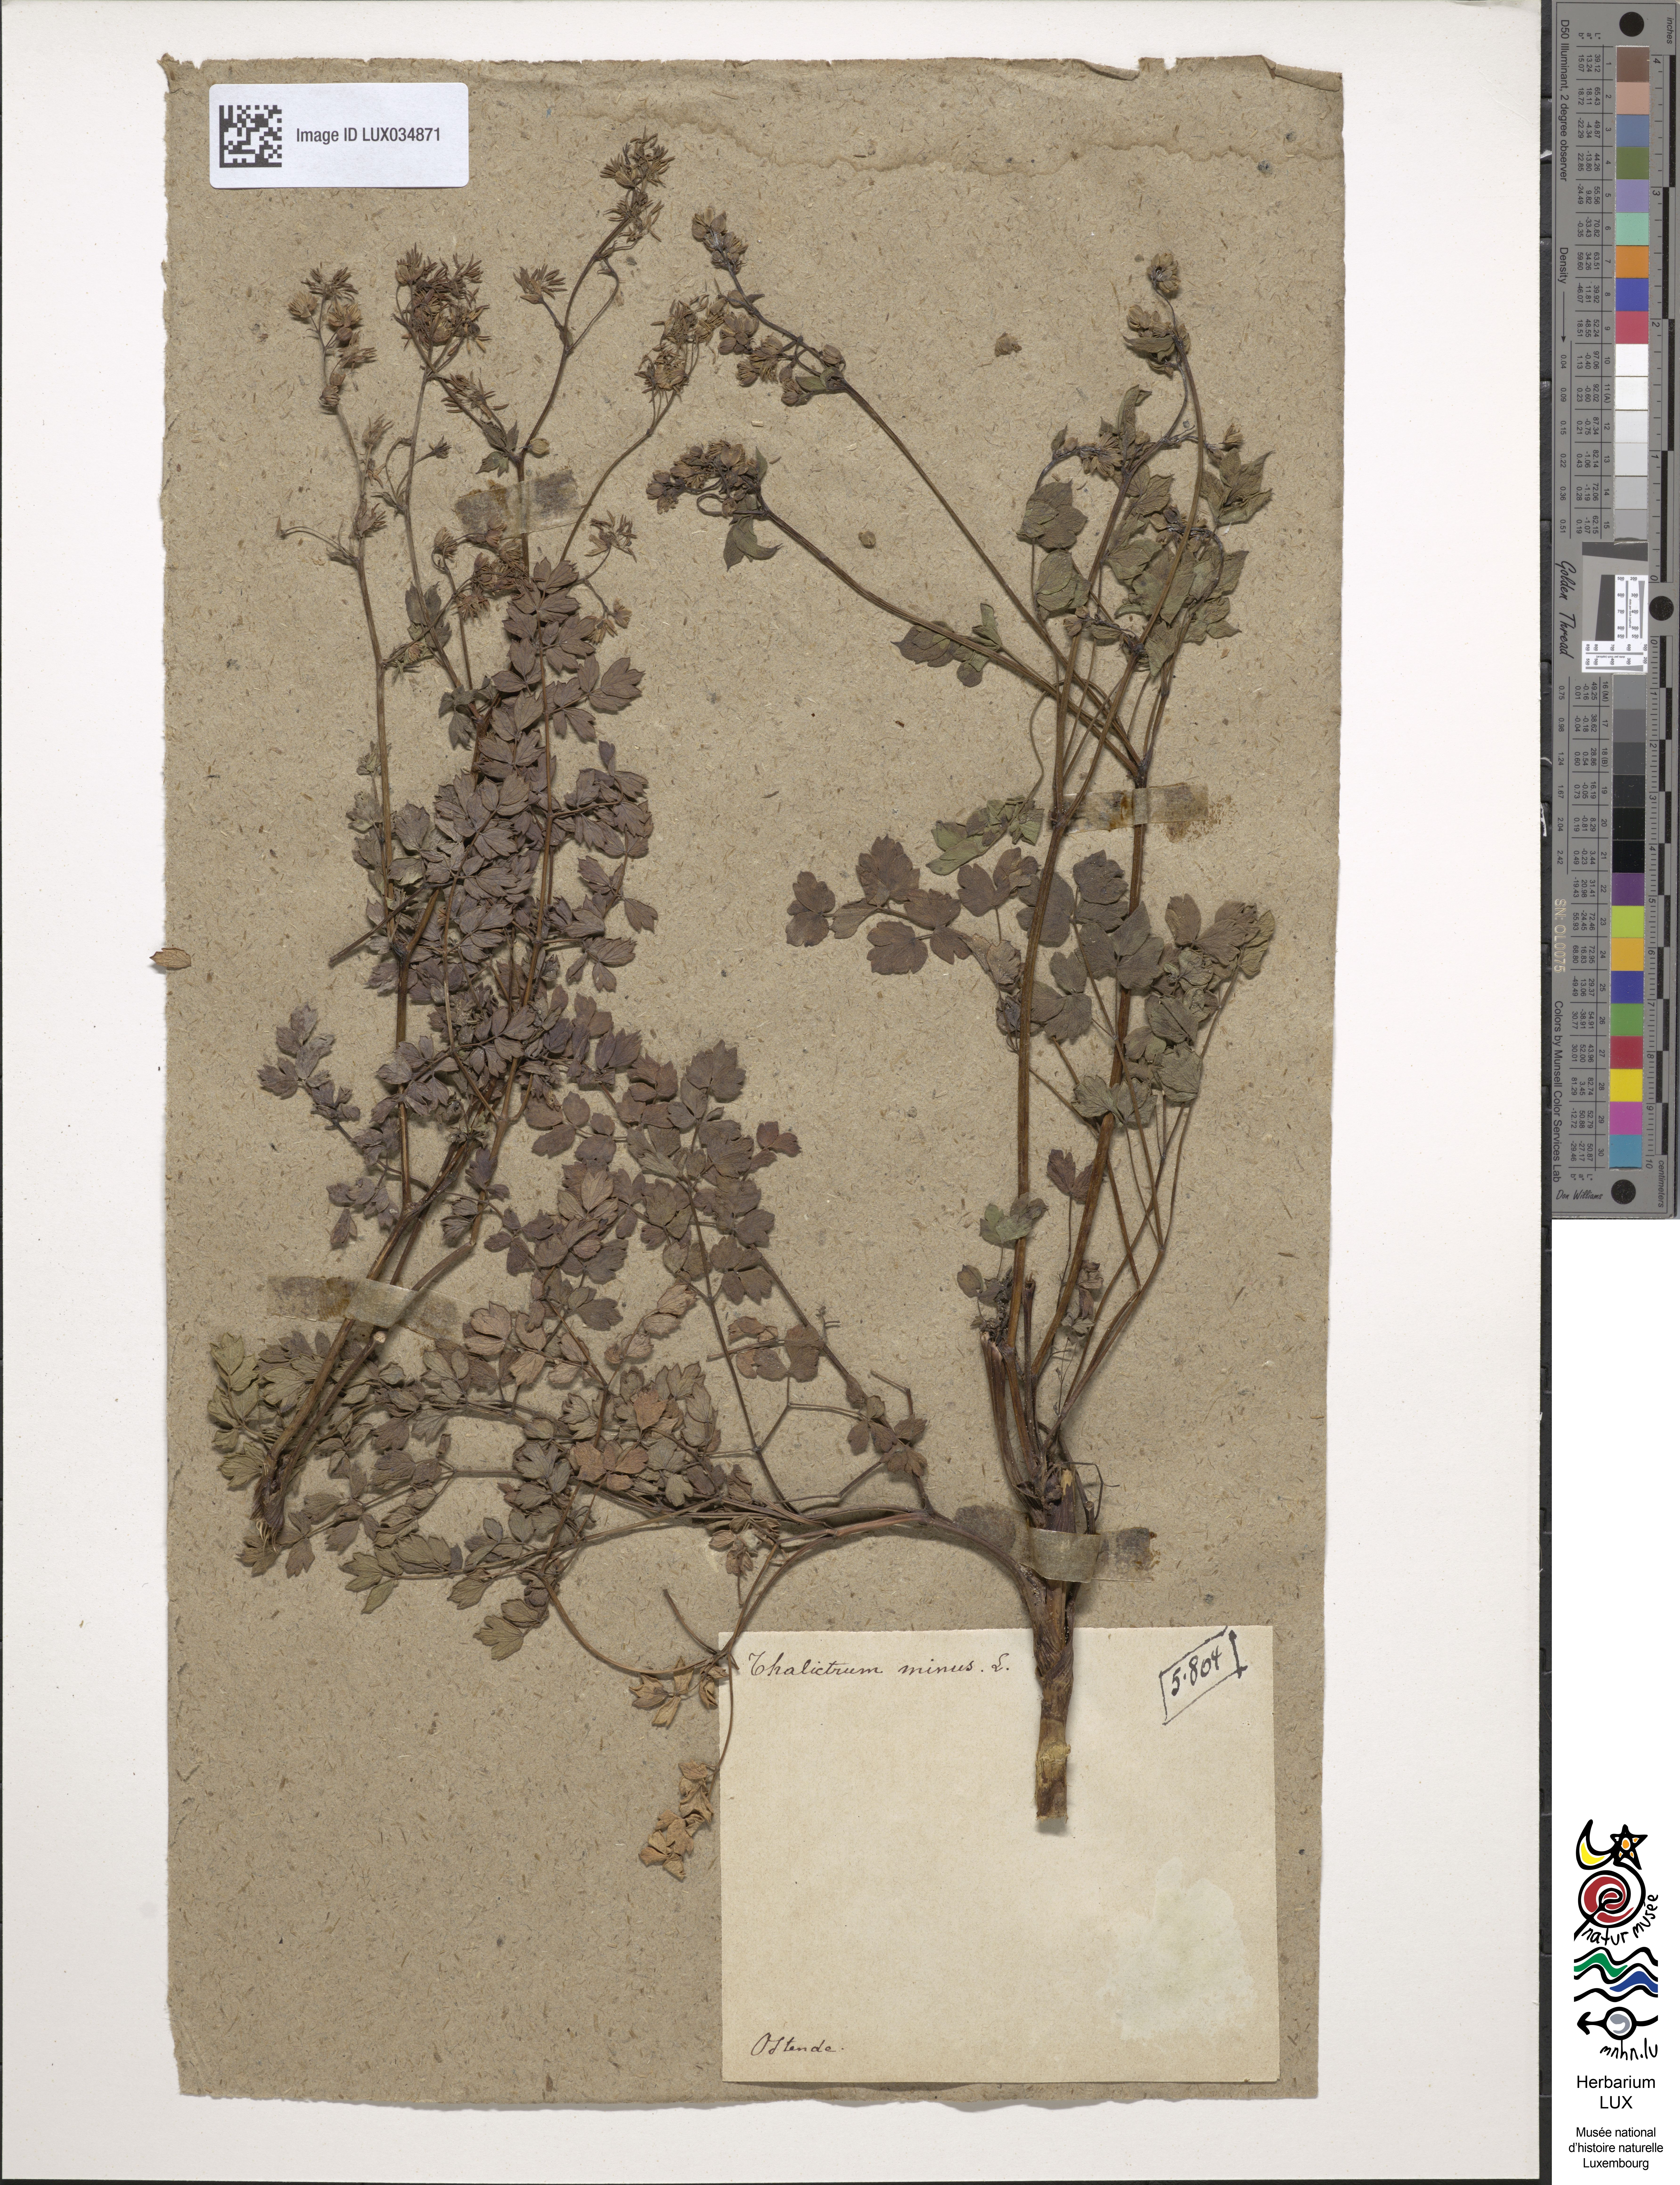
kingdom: Plantae
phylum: Tracheophyta
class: Magnoliopsida
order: Ranunculales
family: Ranunculaceae
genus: Thalictrum
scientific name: Thalictrum minus
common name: Lesser meadow-rue
